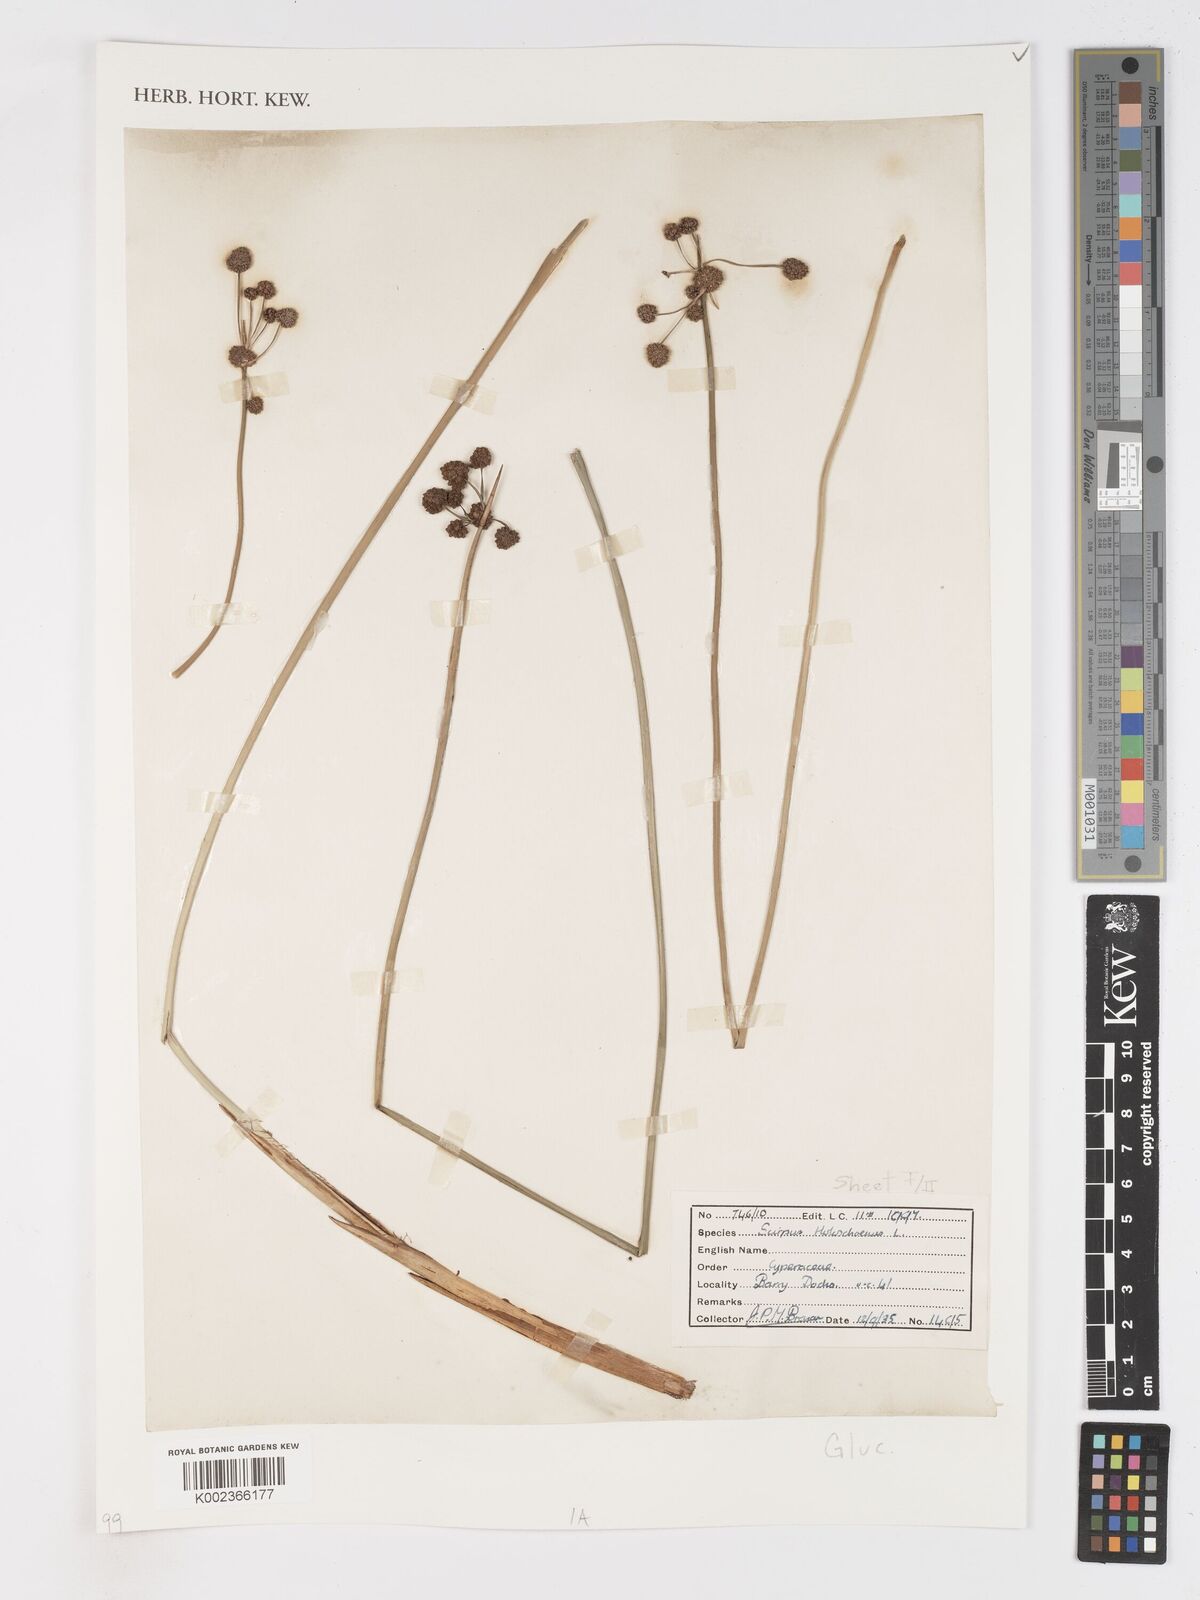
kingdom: Plantae
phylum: Tracheophyta
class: Liliopsida
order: Poales
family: Cyperaceae
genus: Scirpoides
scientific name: Scirpoides holoschoenus
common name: Round-headed club-rush
